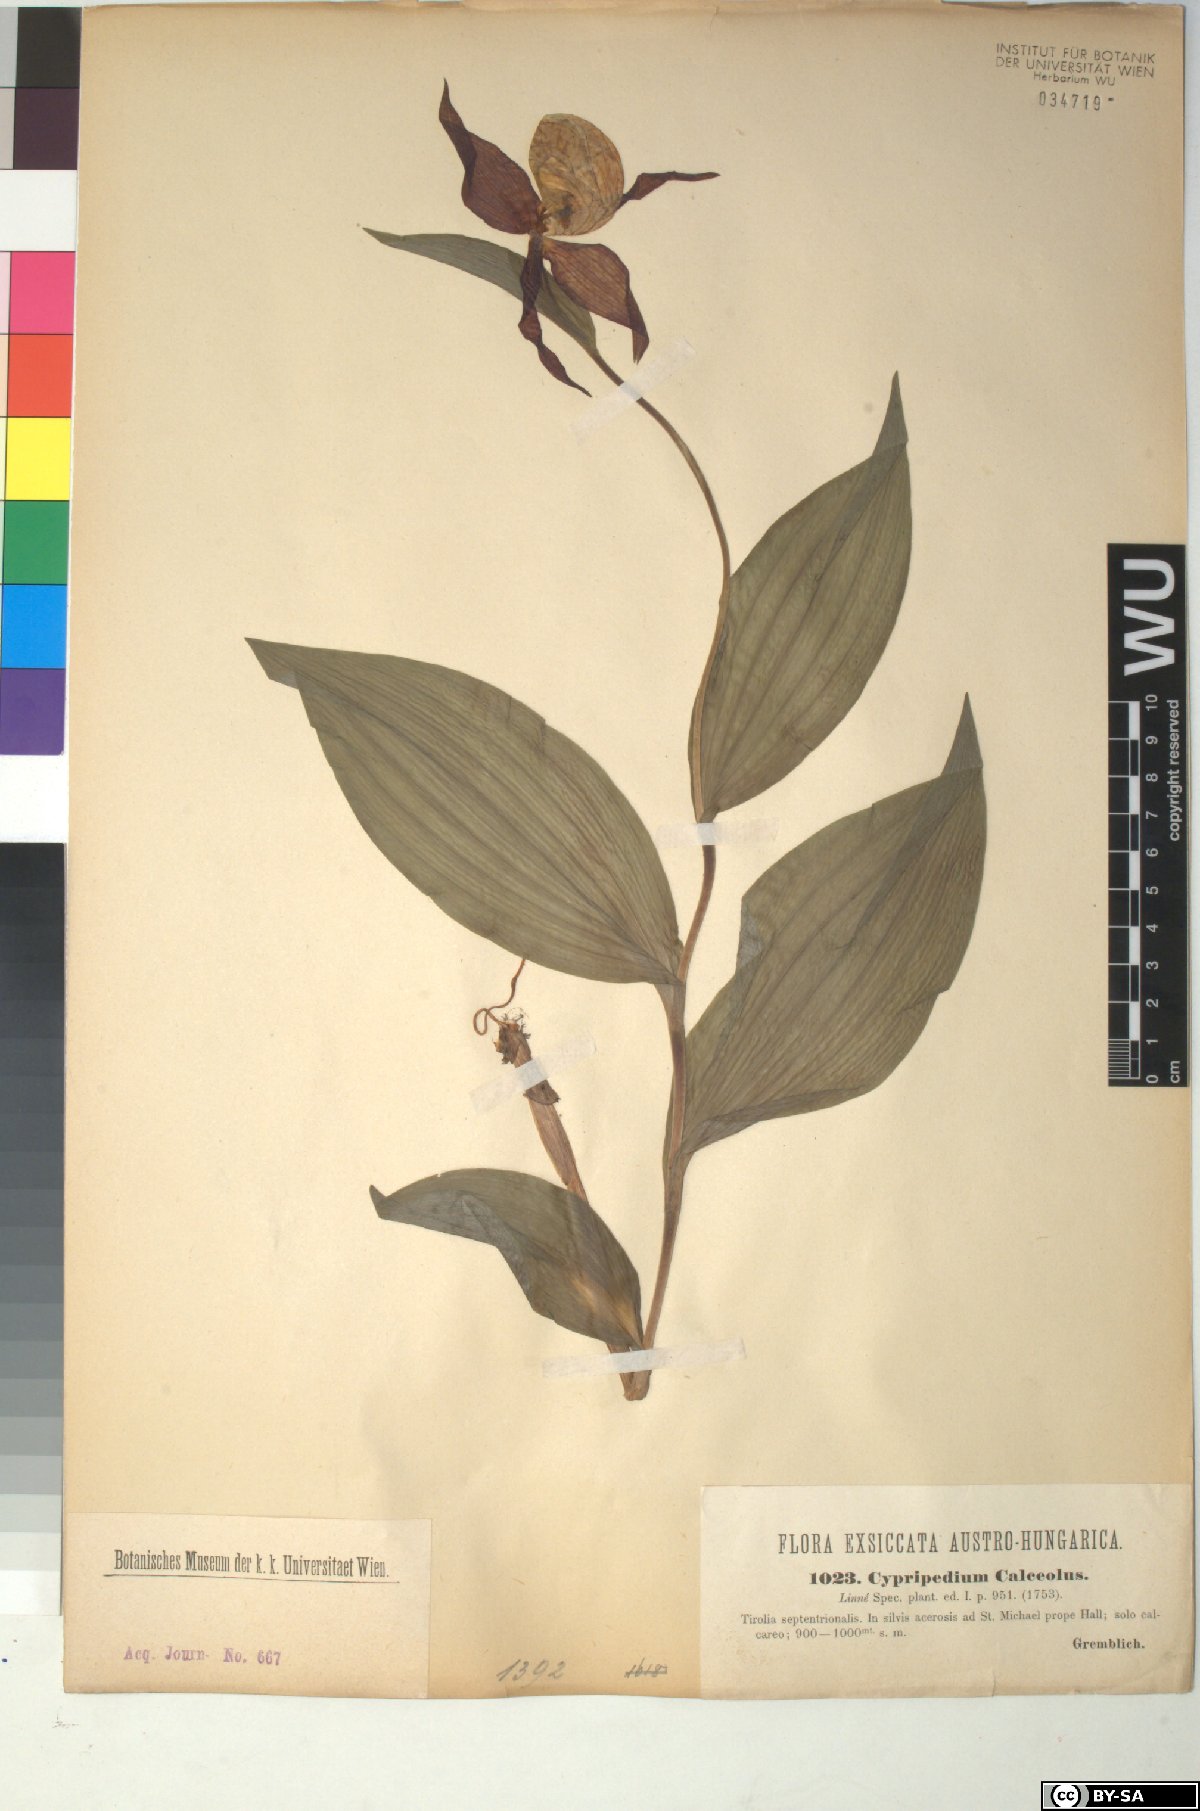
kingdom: Plantae
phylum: Tracheophyta
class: Liliopsida
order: Asparagales
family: Orchidaceae
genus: Cypripedium
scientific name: Cypripedium calceolus
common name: Lady's-slipper
